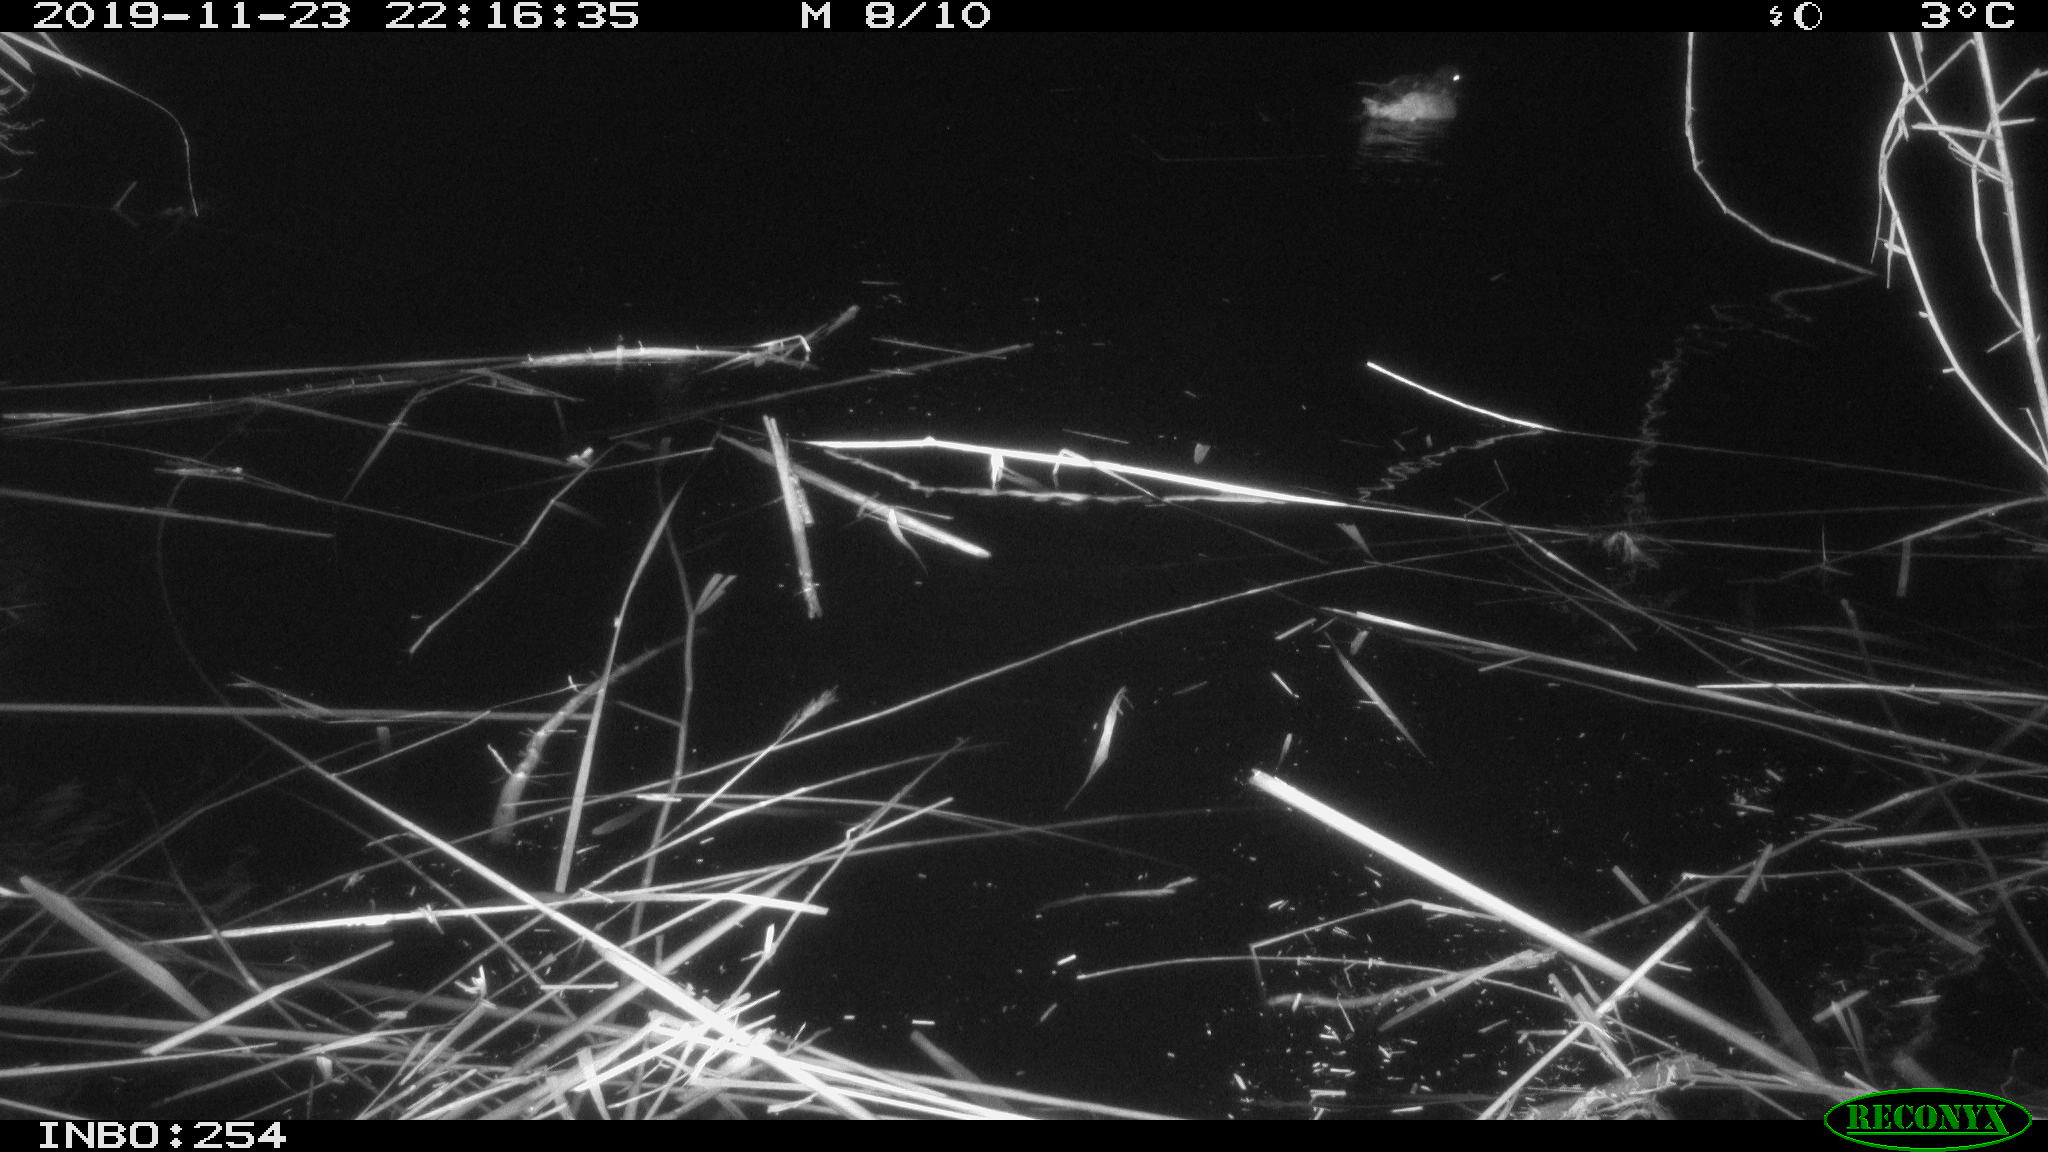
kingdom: Animalia
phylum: Chordata
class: Aves
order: Anseriformes
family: Anatidae
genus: Anas
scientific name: Anas platyrhynchos
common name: Mallard
